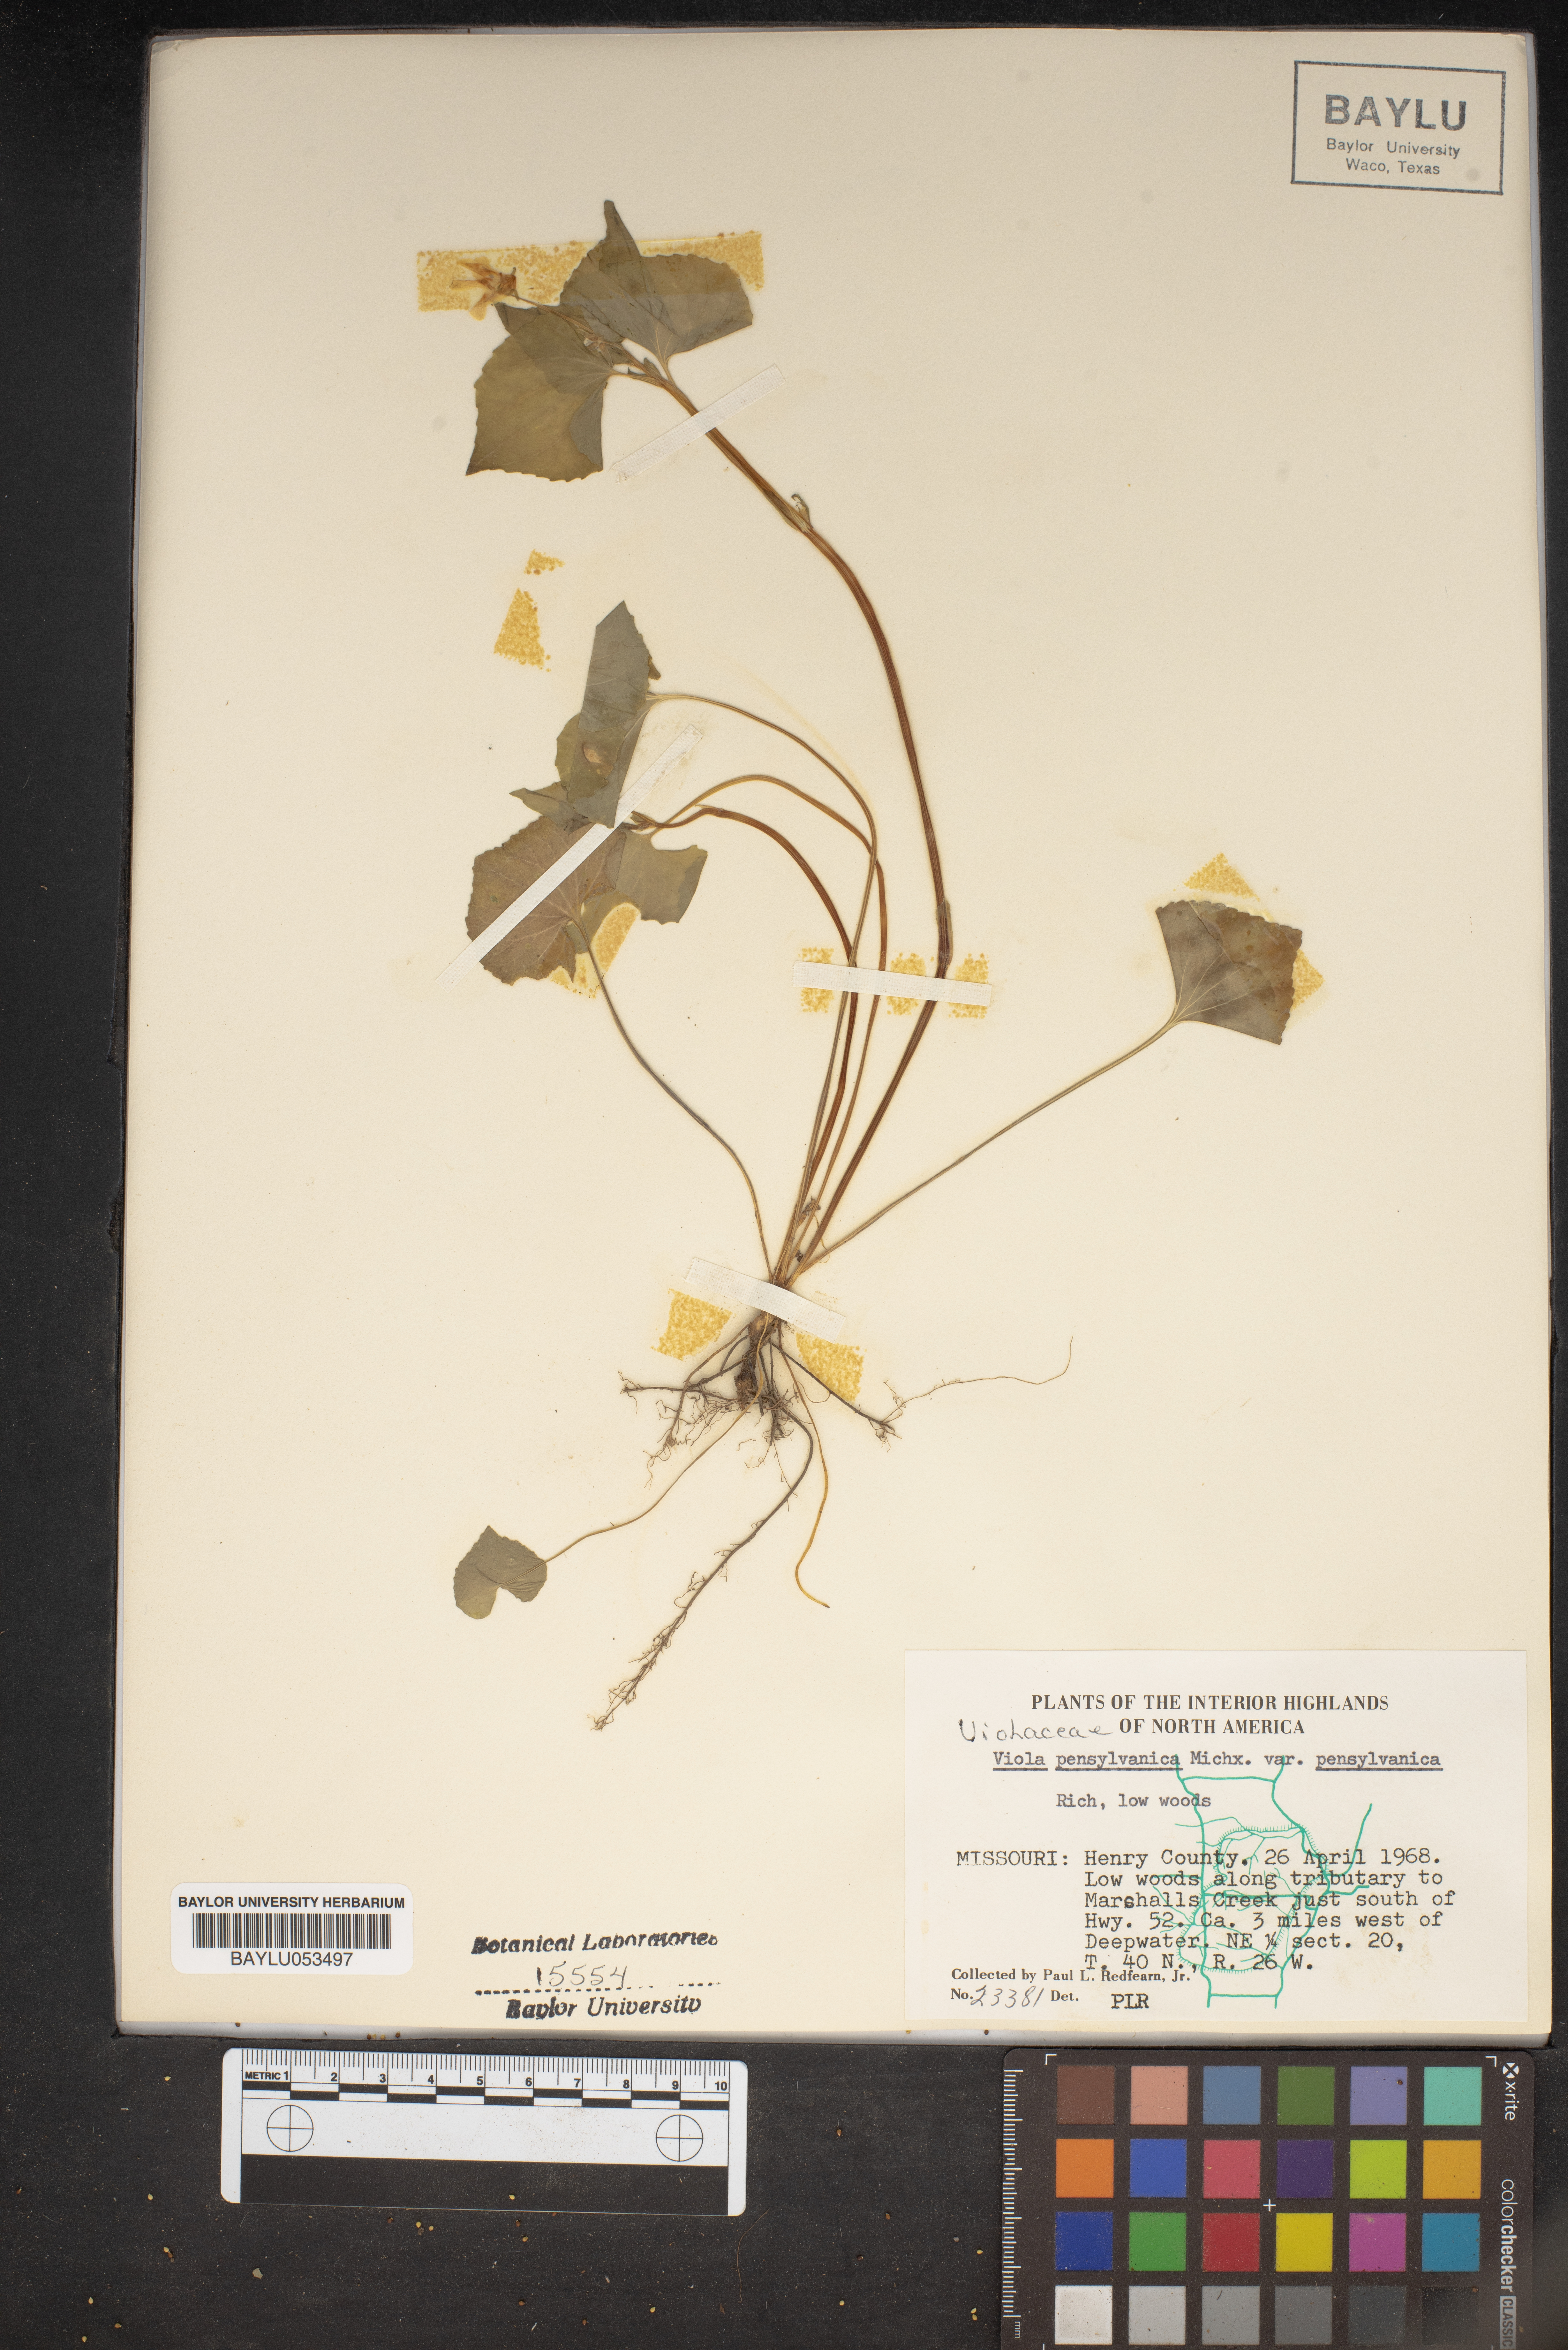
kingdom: Plantae
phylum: Tracheophyta
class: Magnoliopsida
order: Malpighiales
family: Violaceae
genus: Viola
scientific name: Viola pubescens
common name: Yellow forest violet
